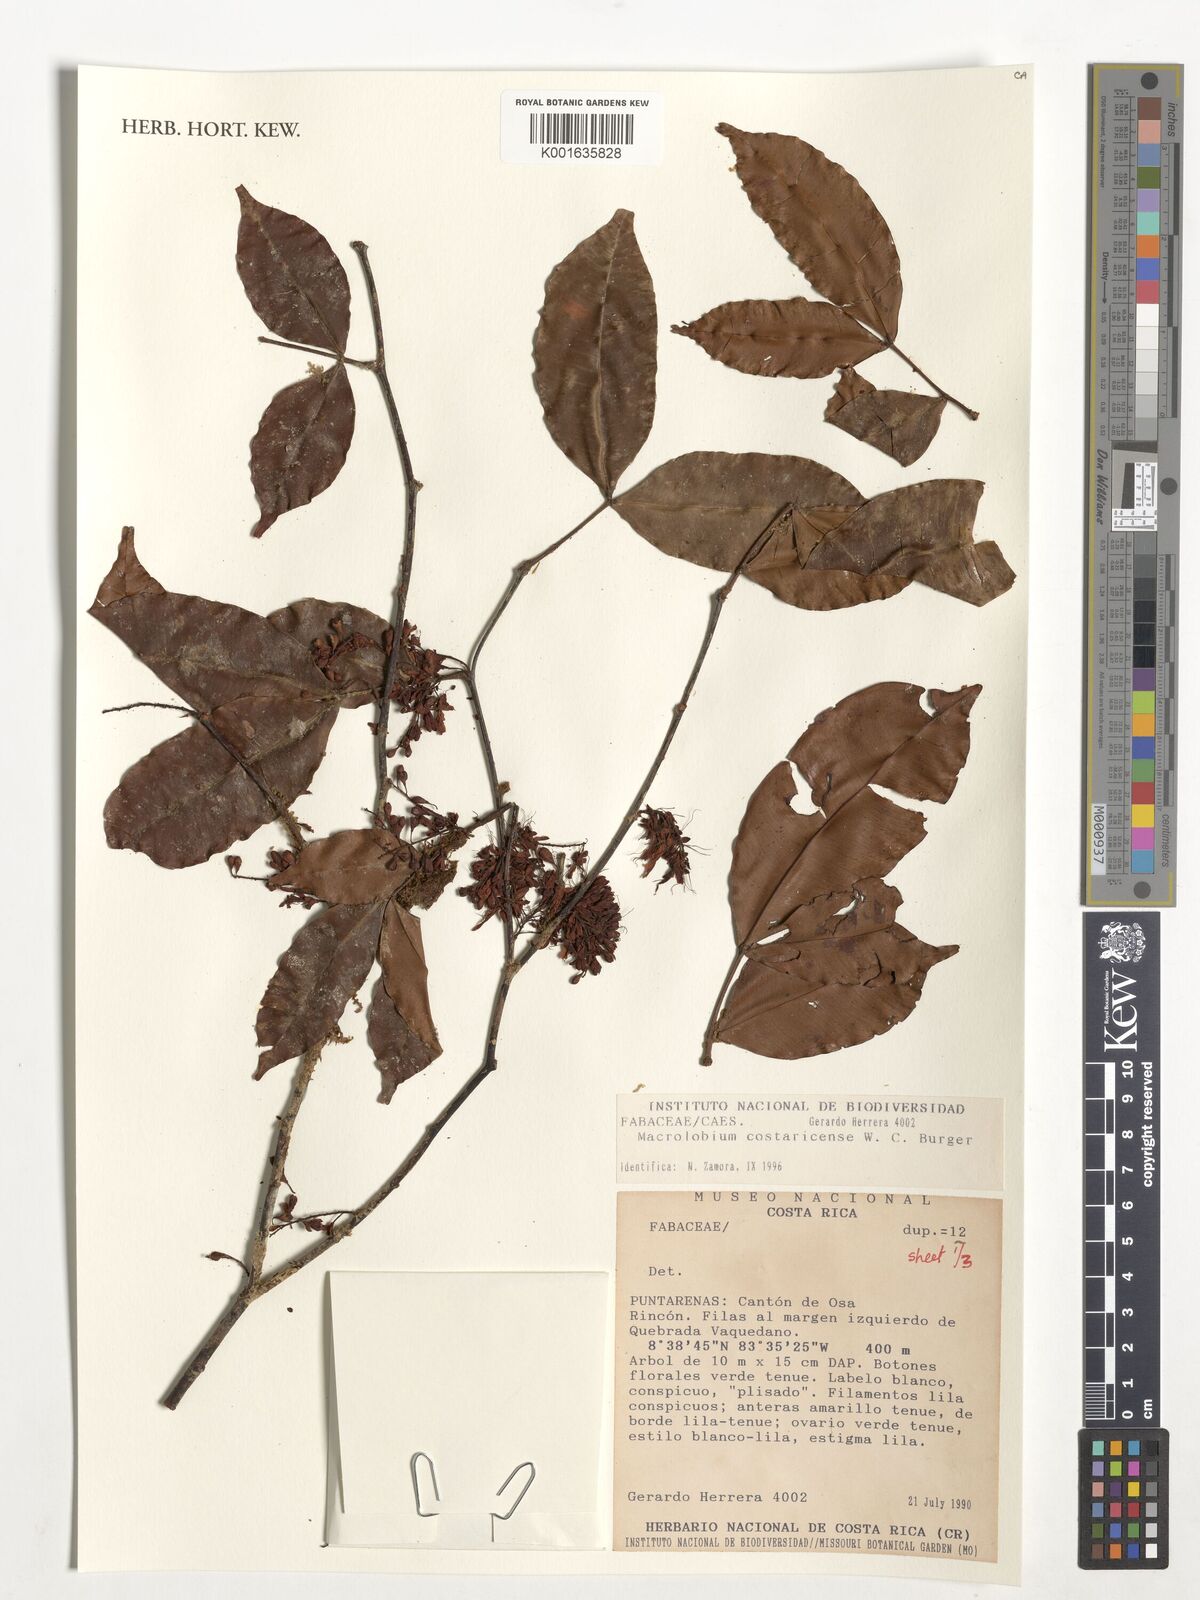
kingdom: Plantae
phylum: Tracheophyta
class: Magnoliopsida
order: Fabales
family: Fabaceae
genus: Macrolobium
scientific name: Macrolobium costaricense
